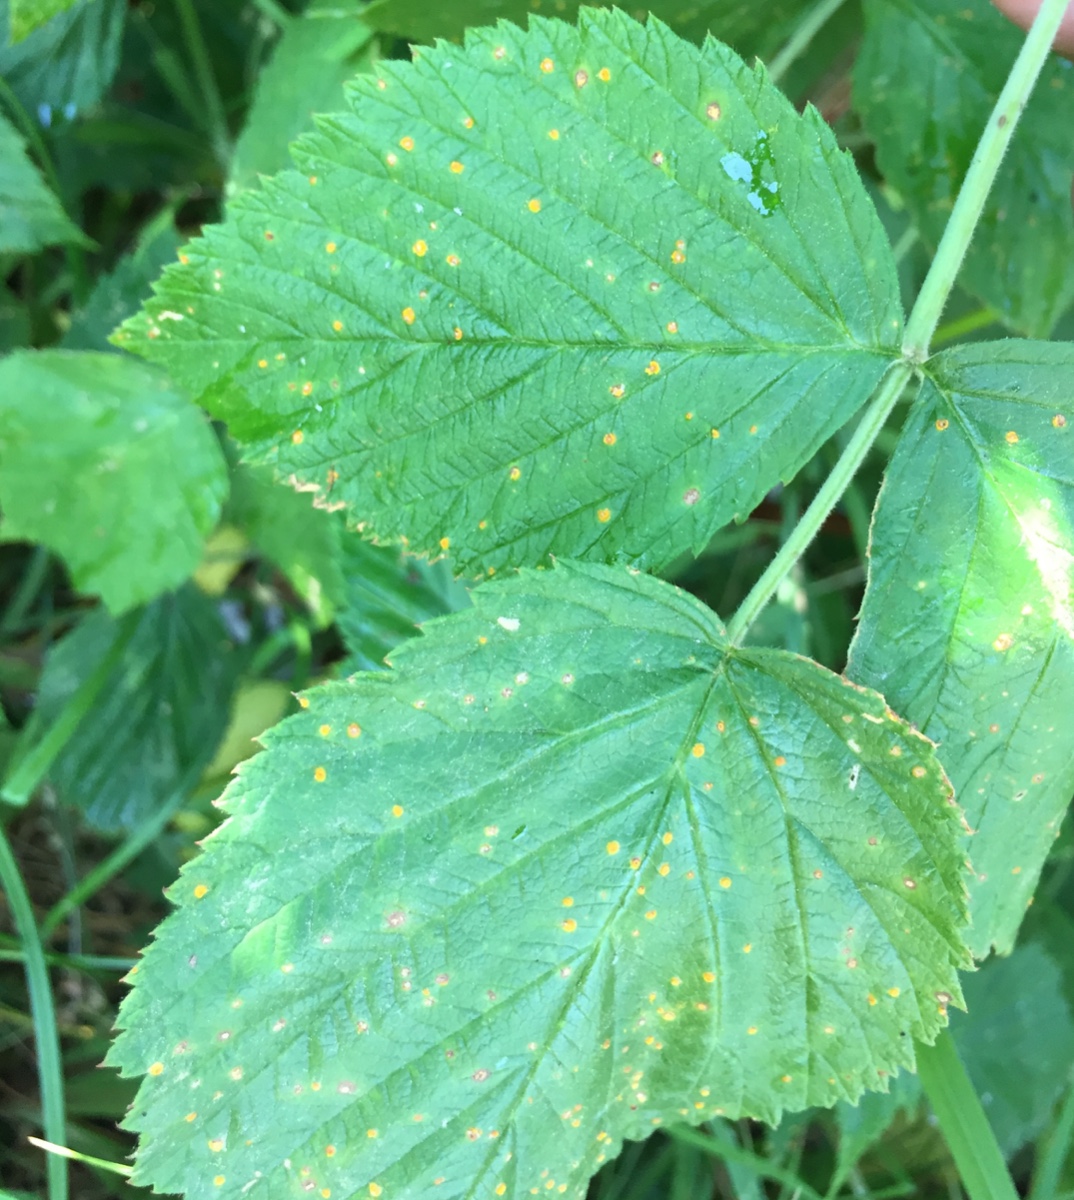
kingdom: Fungi
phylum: Basidiomycota
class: Pucciniomycetes
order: Pucciniales
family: Phragmidiaceae
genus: Phragmidium
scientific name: Phragmidium rubi-idaei
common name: hindbær-flercellerust
